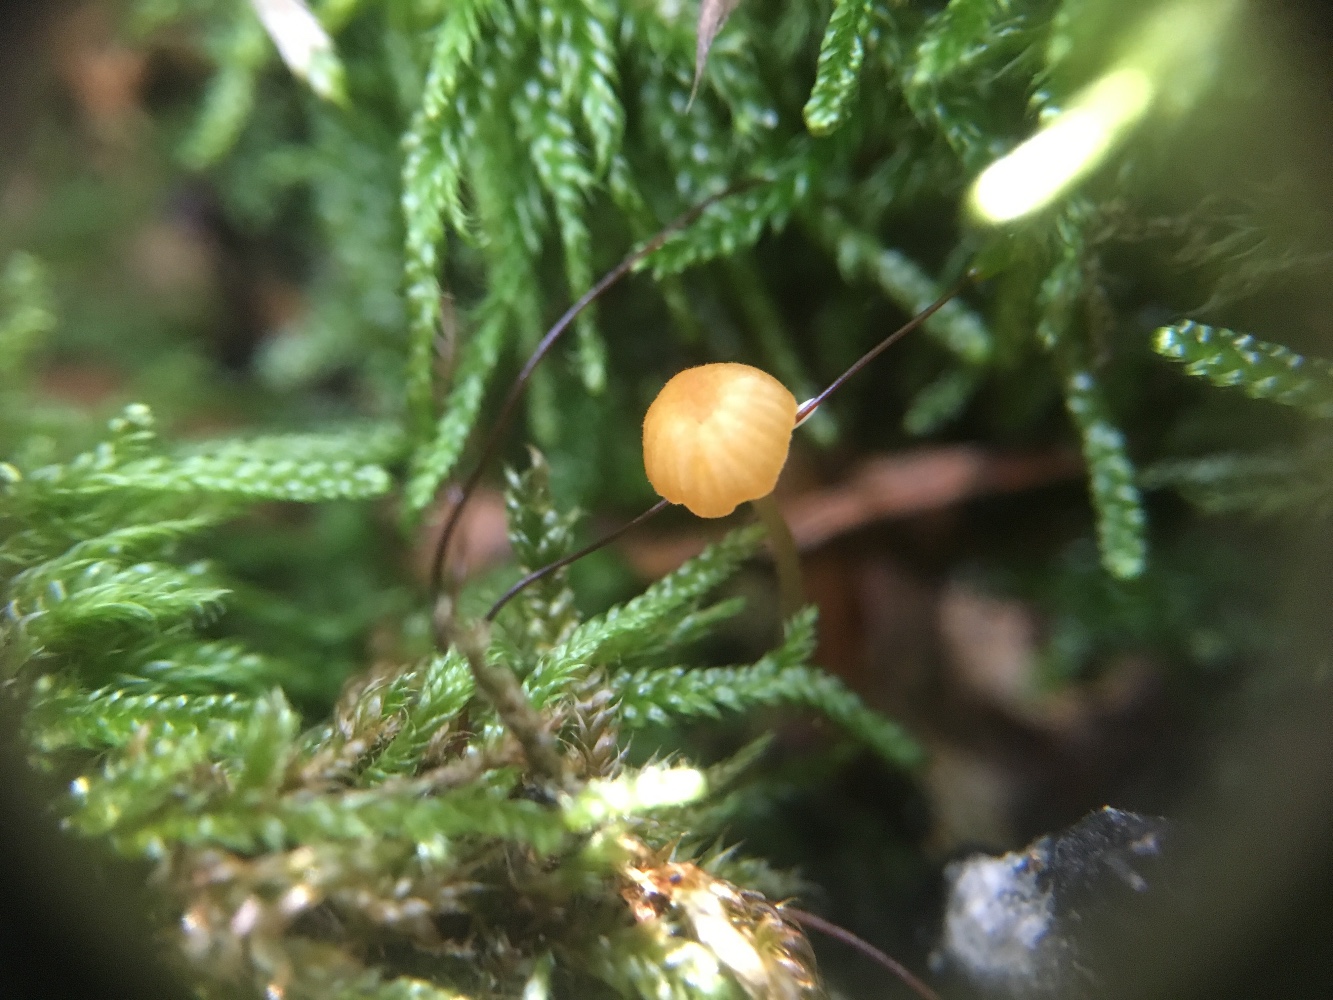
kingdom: Fungi
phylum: Basidiomycota
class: Agaricomycetes
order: Hymenochaetales
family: Rickenellaceae
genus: Rickenella
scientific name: Rickenella fibula
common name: orange mosnavlehat
